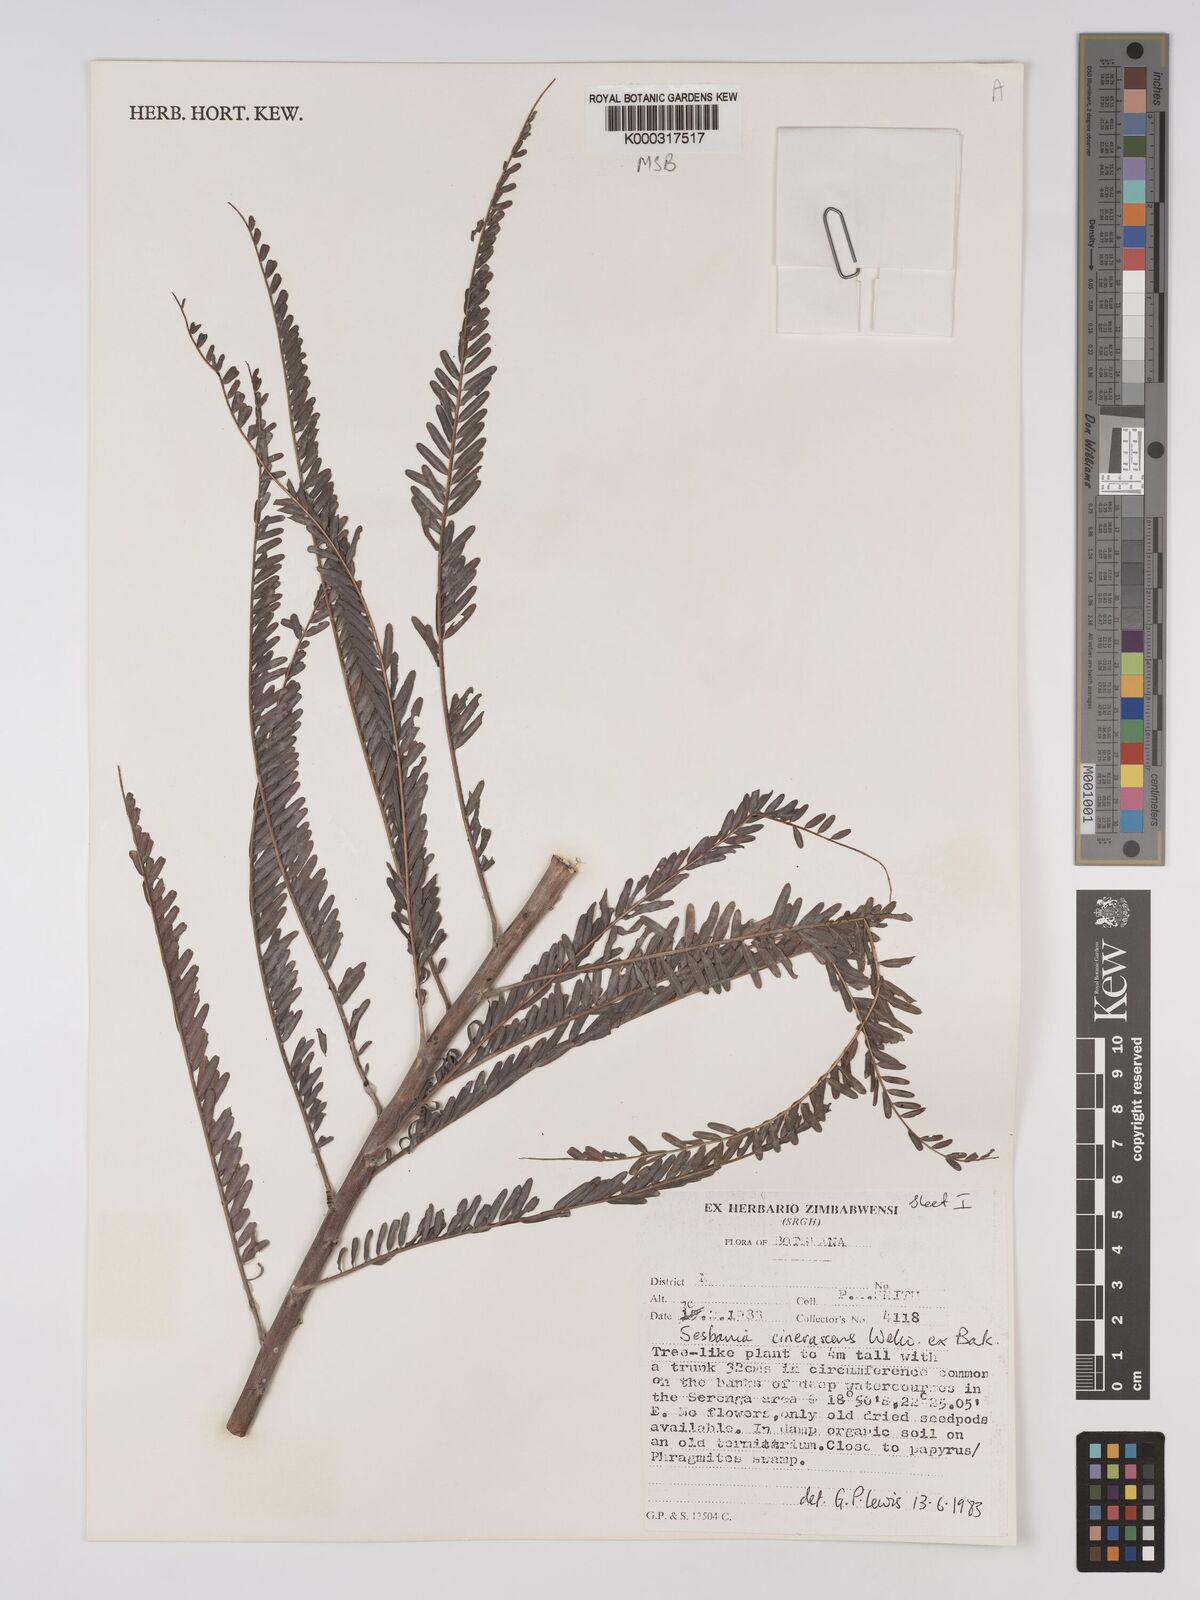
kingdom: Plantae
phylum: Tracheophyta
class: Magnoliopsida
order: Fabales
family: Fabaceae
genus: Sesbania
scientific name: Sesbania cinerascens
